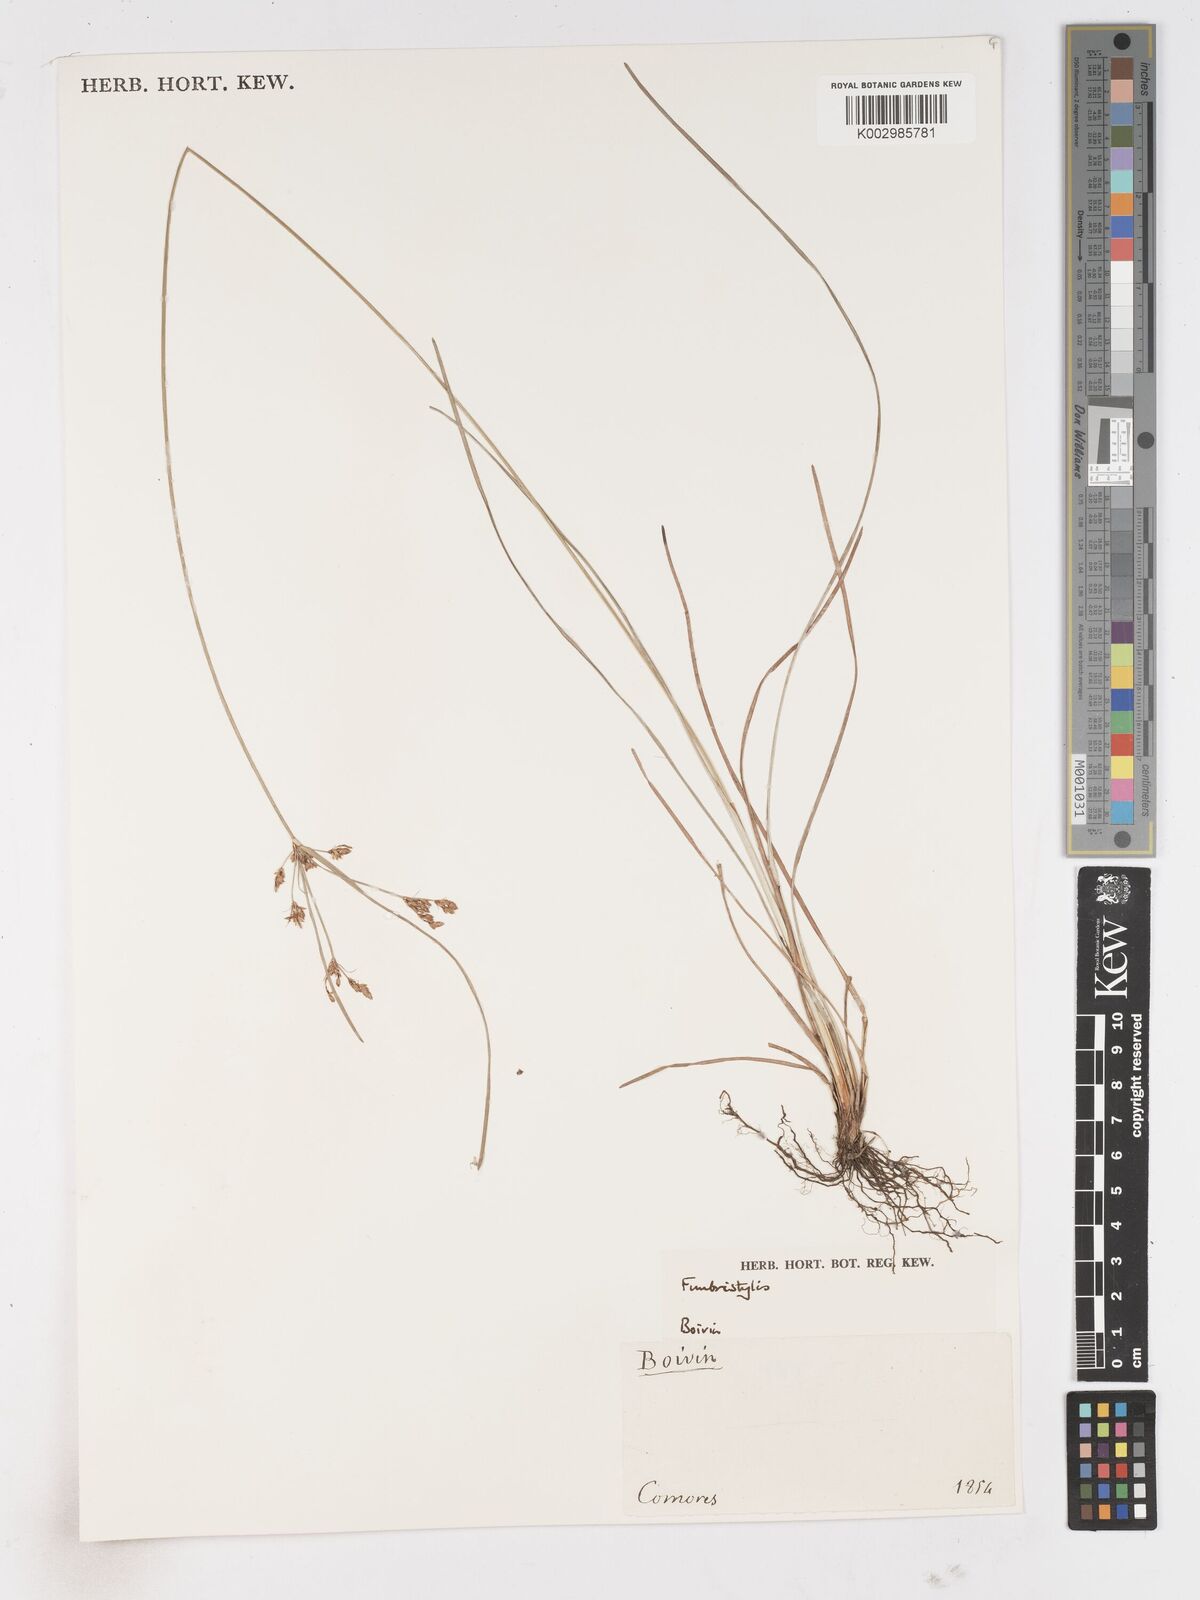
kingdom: Plantae
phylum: Tracheophyta
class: Liliopsida
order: Poales
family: Cyperaceae
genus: Fimbristylis
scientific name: Fimbristylis
